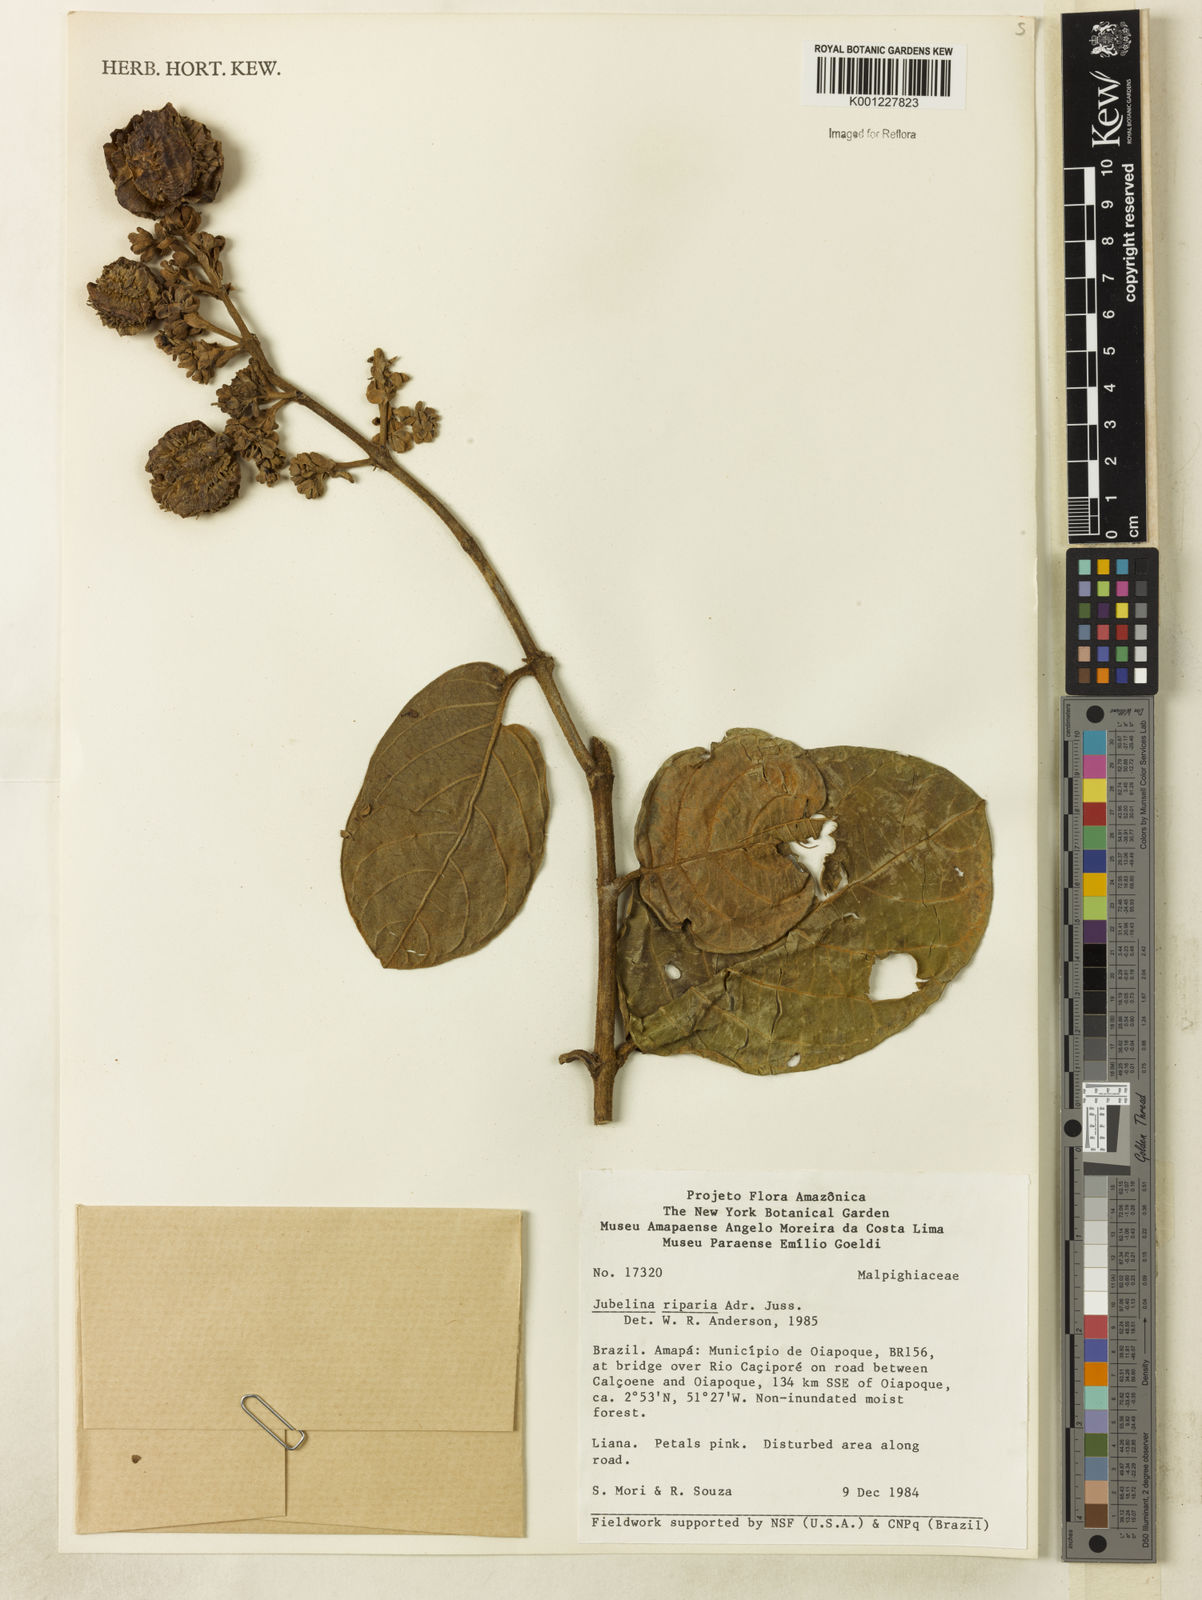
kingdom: Plantae
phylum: Tracheophyta
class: Magnoliopsida
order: Malpighiales
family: Malpighiaceae
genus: Jubelina
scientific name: Jubelina riparia
